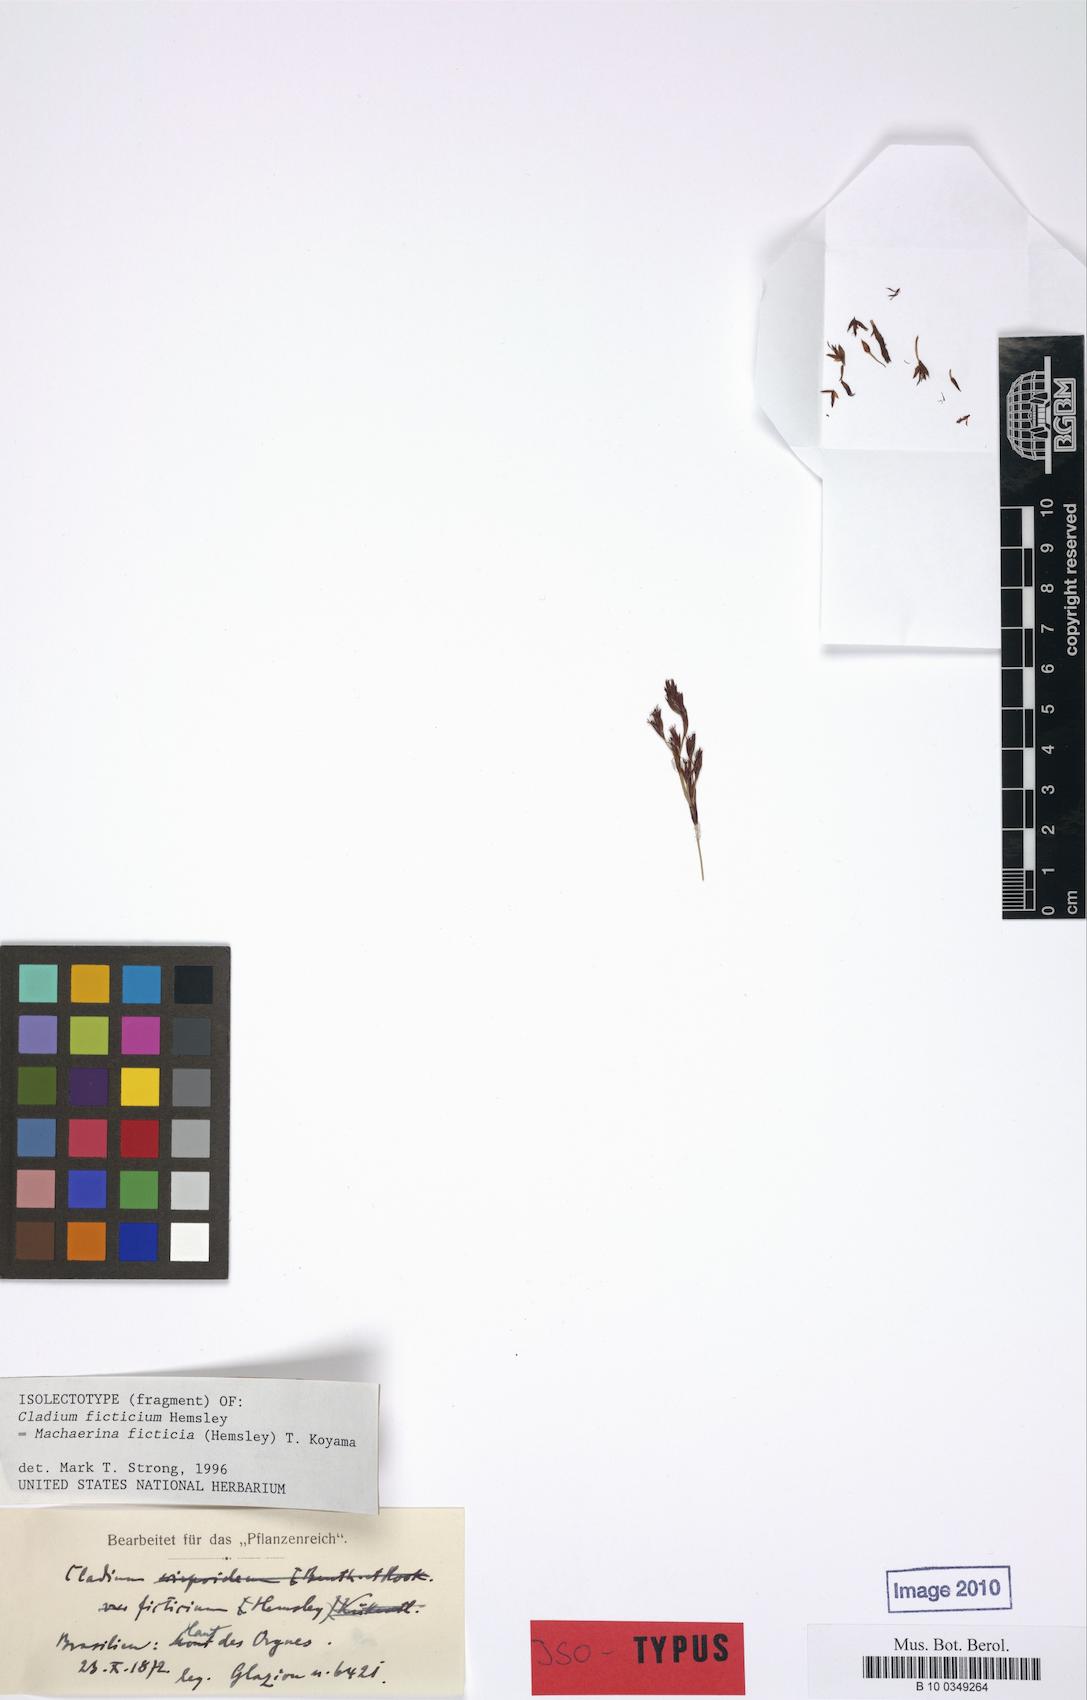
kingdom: Plantae
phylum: Tracheophyta
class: Liliopsida
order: Poales
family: Cyperaceae
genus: Machaerina
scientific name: Machaerina ficticia
